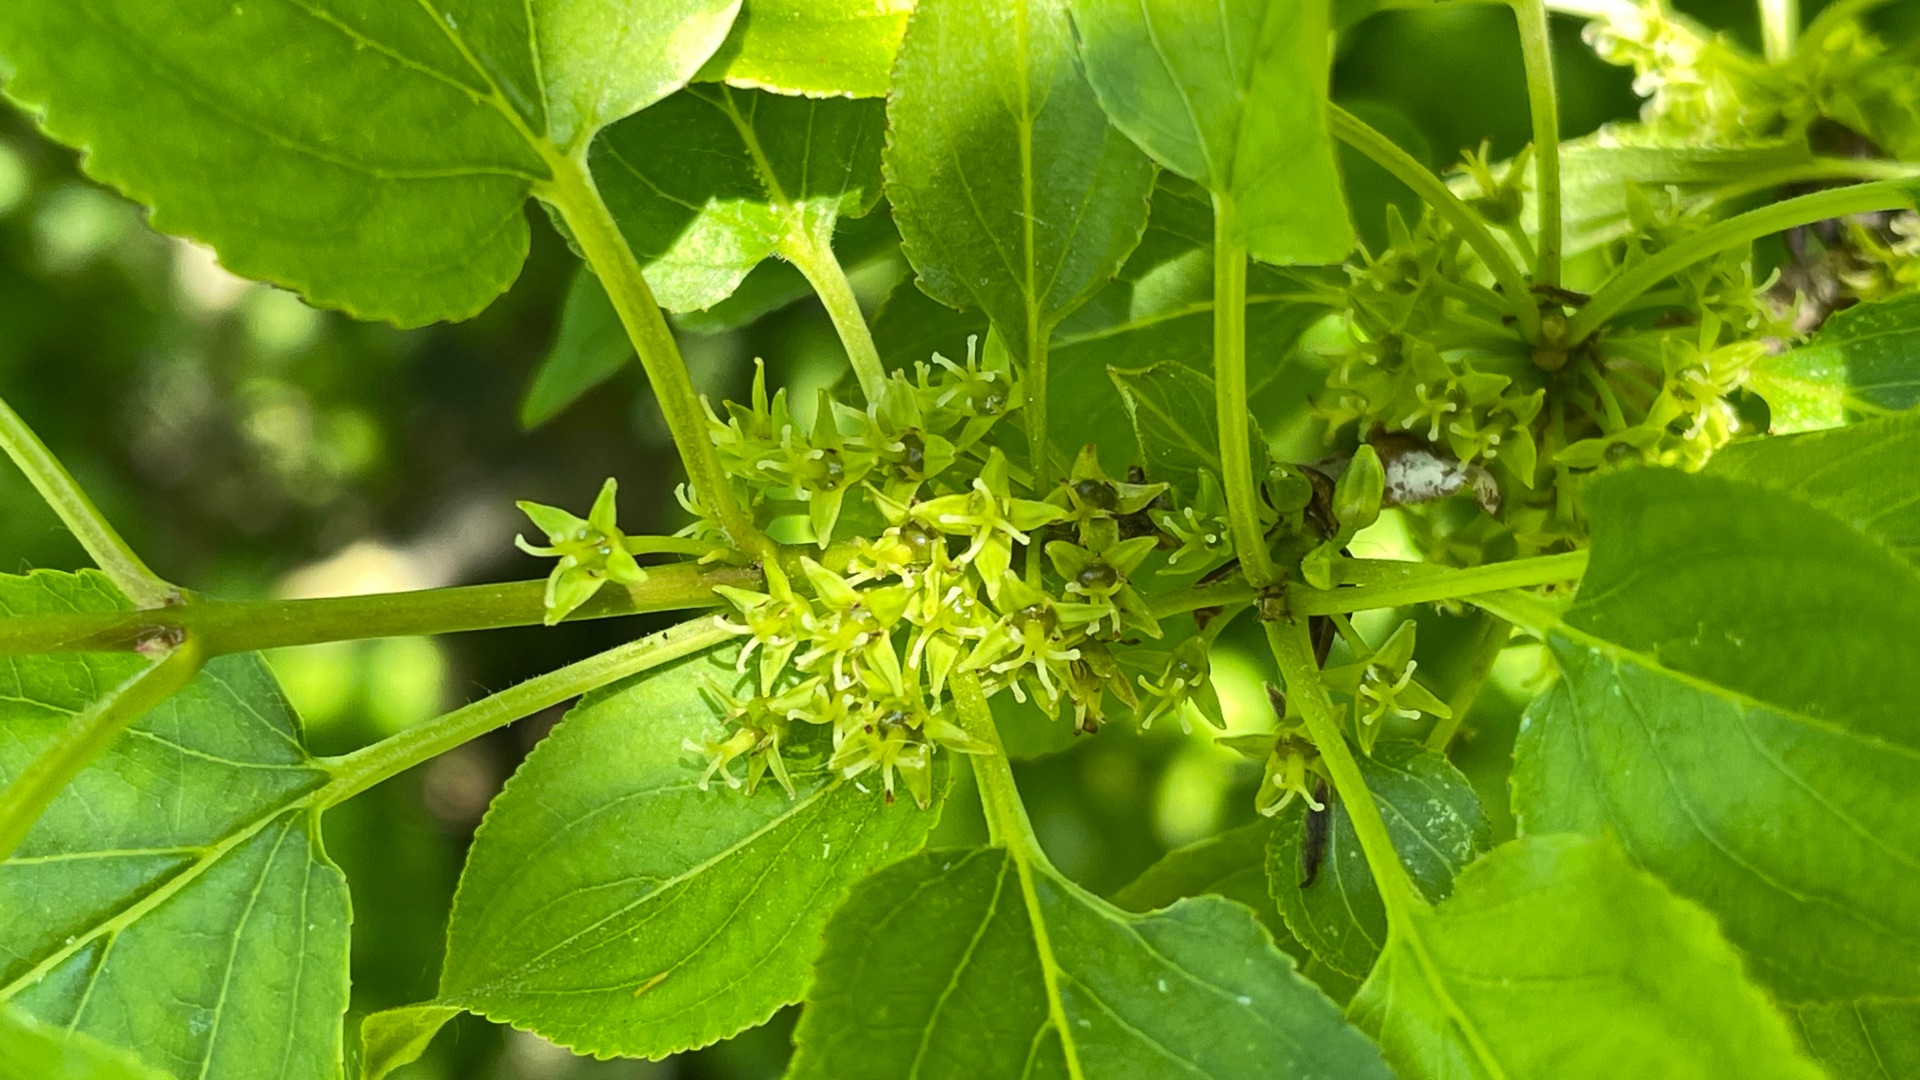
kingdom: Plantae
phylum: Tracheophyta
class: Magnoliopsida
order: Rosales
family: Rhamnaceae
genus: Rhamnus
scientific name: Rhamnus cathartica
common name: Vrietorn
